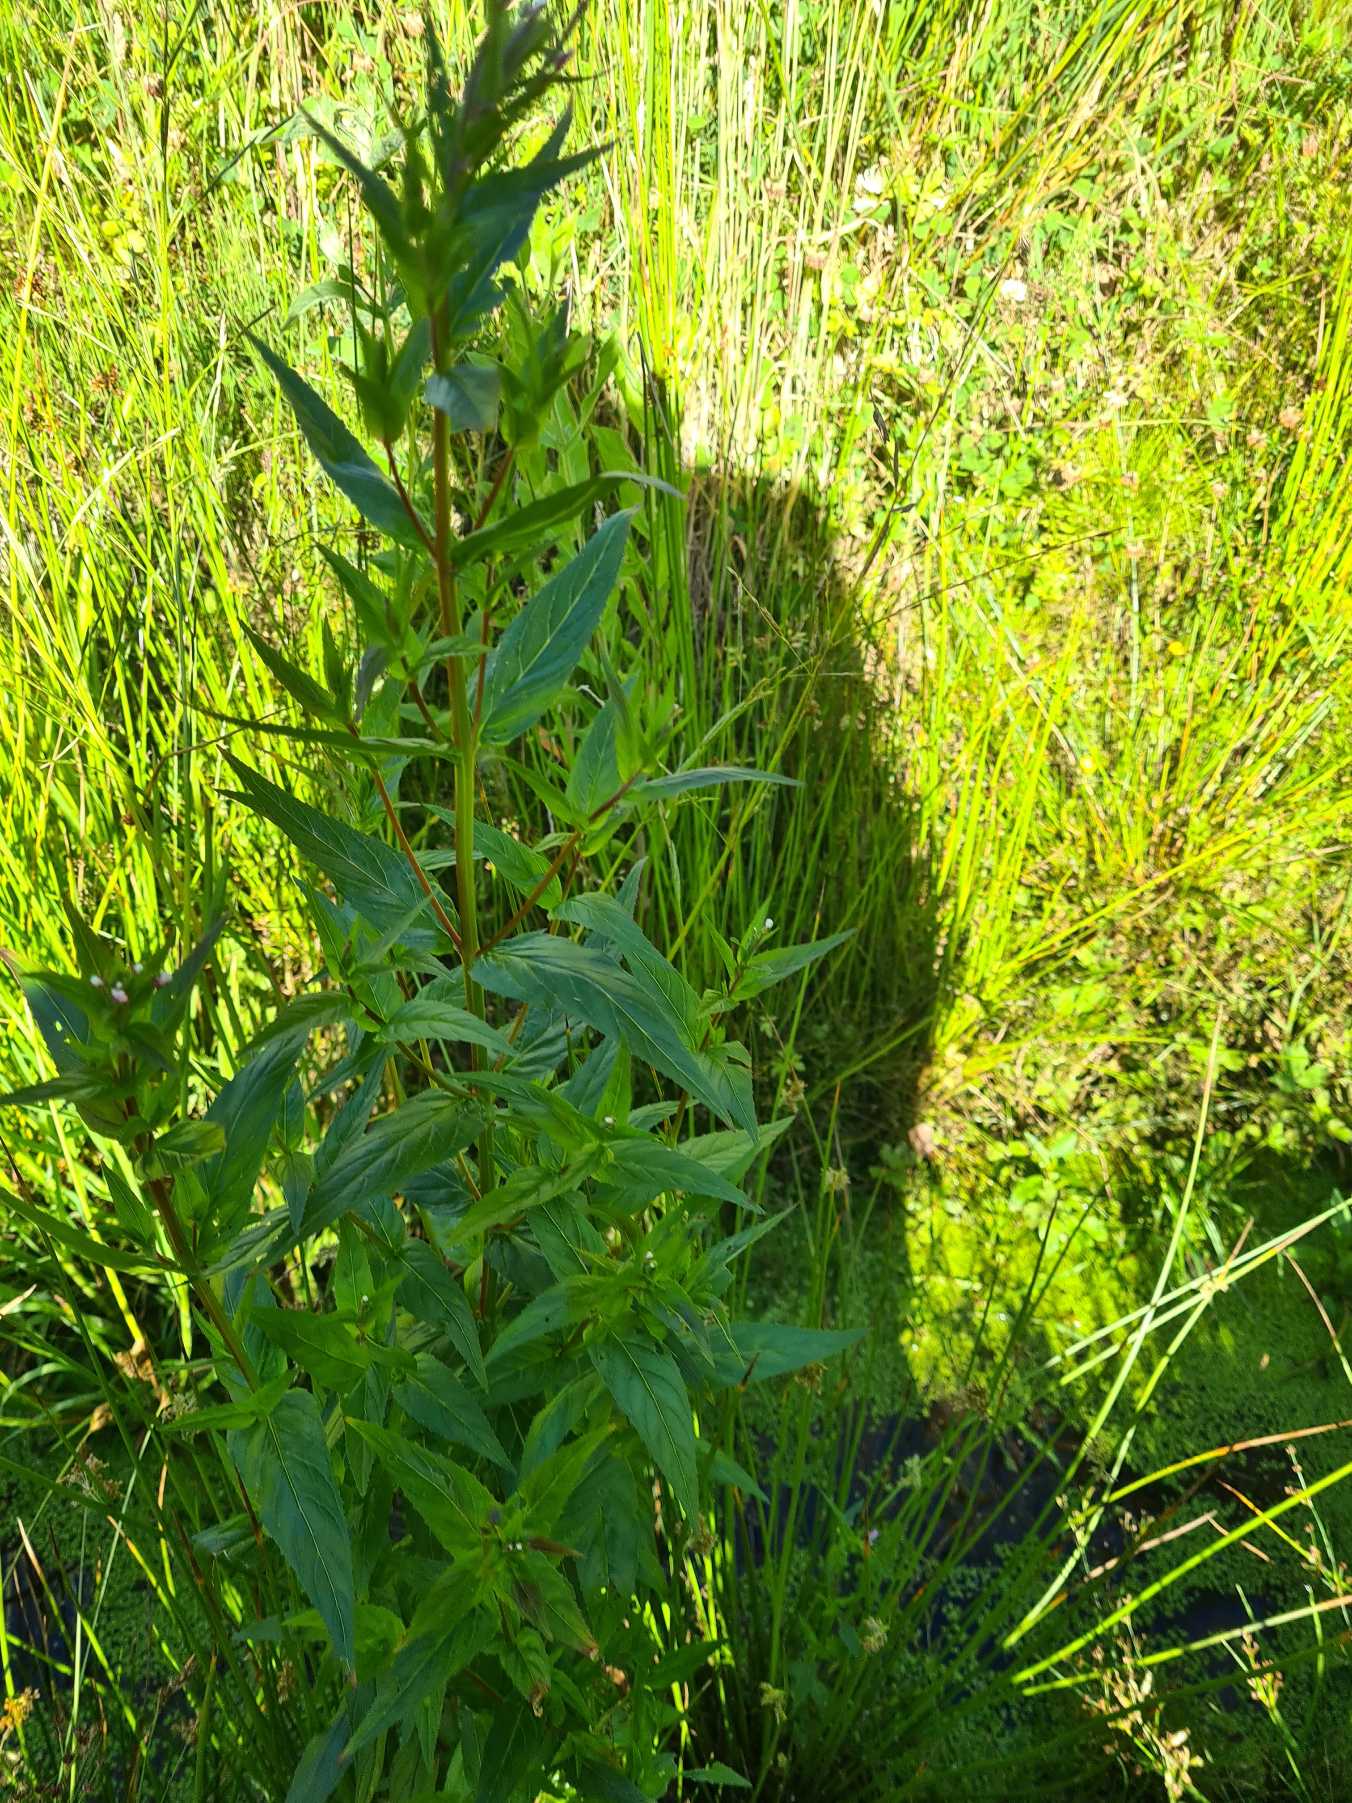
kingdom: Plantae
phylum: Tracheophyta
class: Magnoliopsida
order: Myrtales
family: Onagraceae
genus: Epilobium
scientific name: Epilobium ciliatum
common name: Alaska-dueurt
